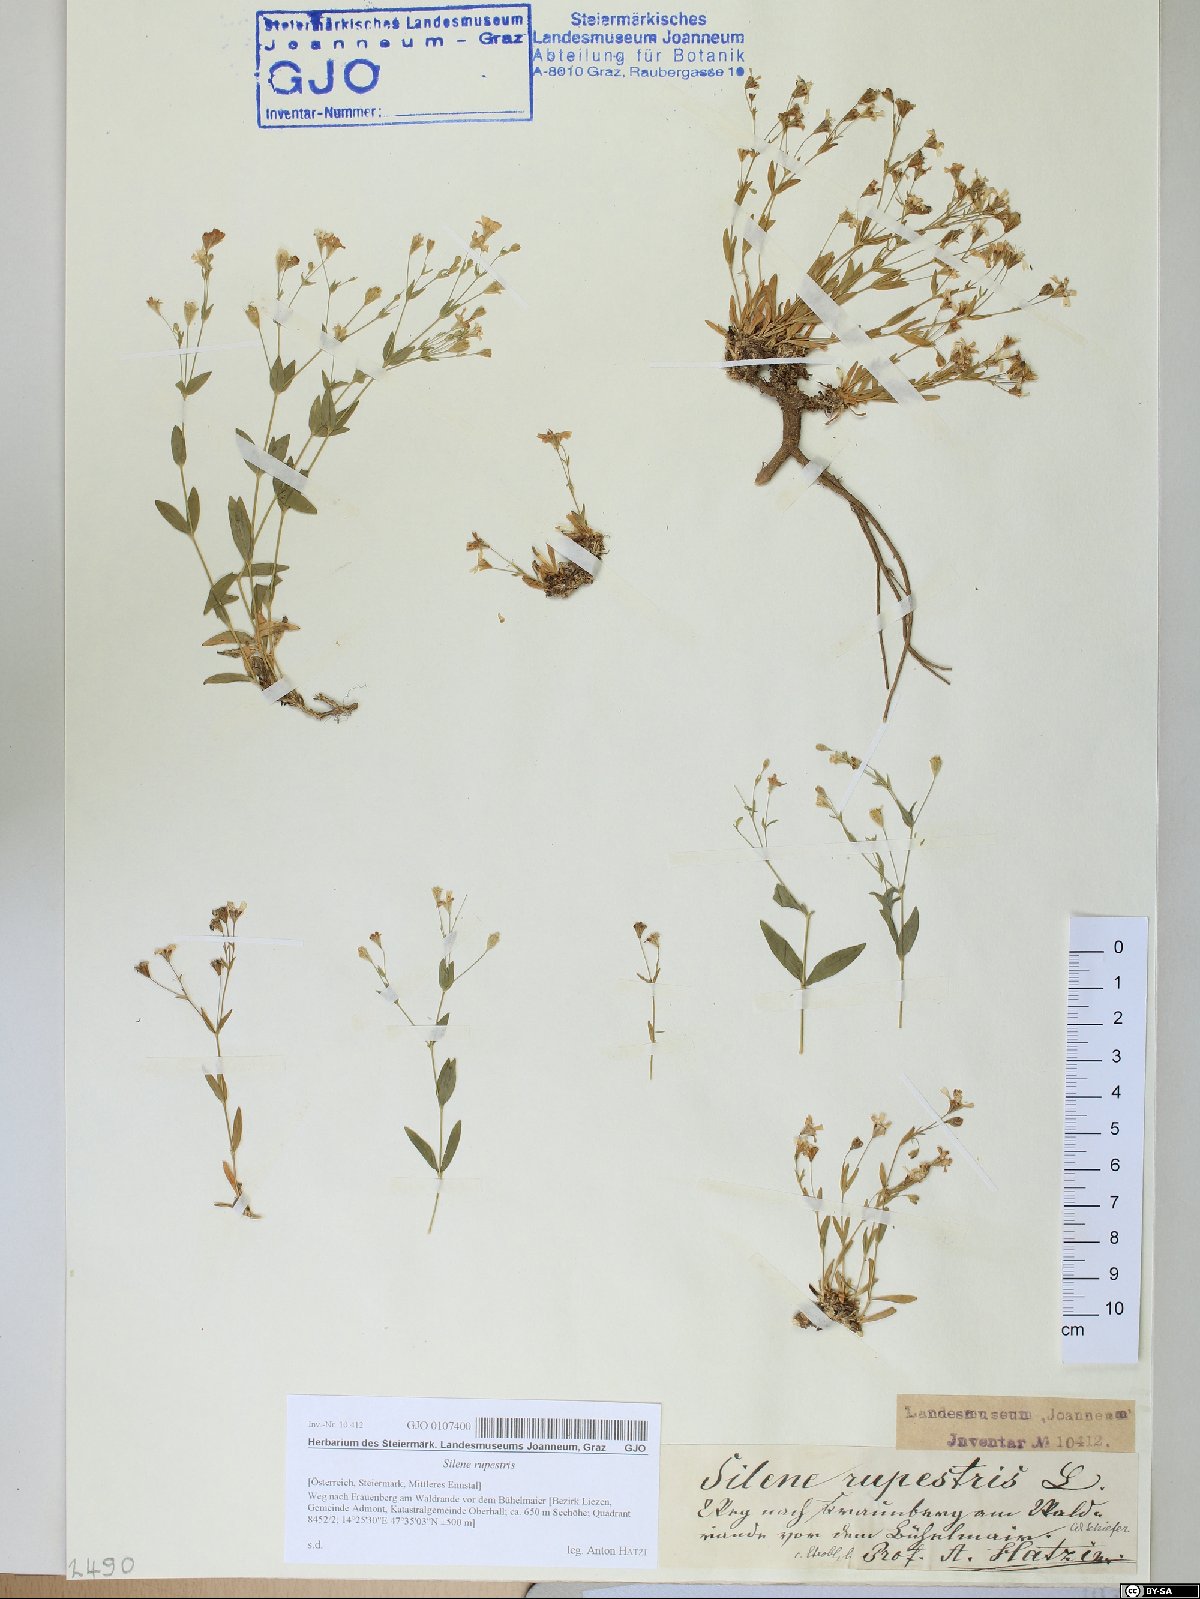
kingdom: Plantae
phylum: Tracheophyta
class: Magnoliopsida
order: Caryophyllales
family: Caryophyllaceae
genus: Atocion
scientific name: Atocion rupestre
